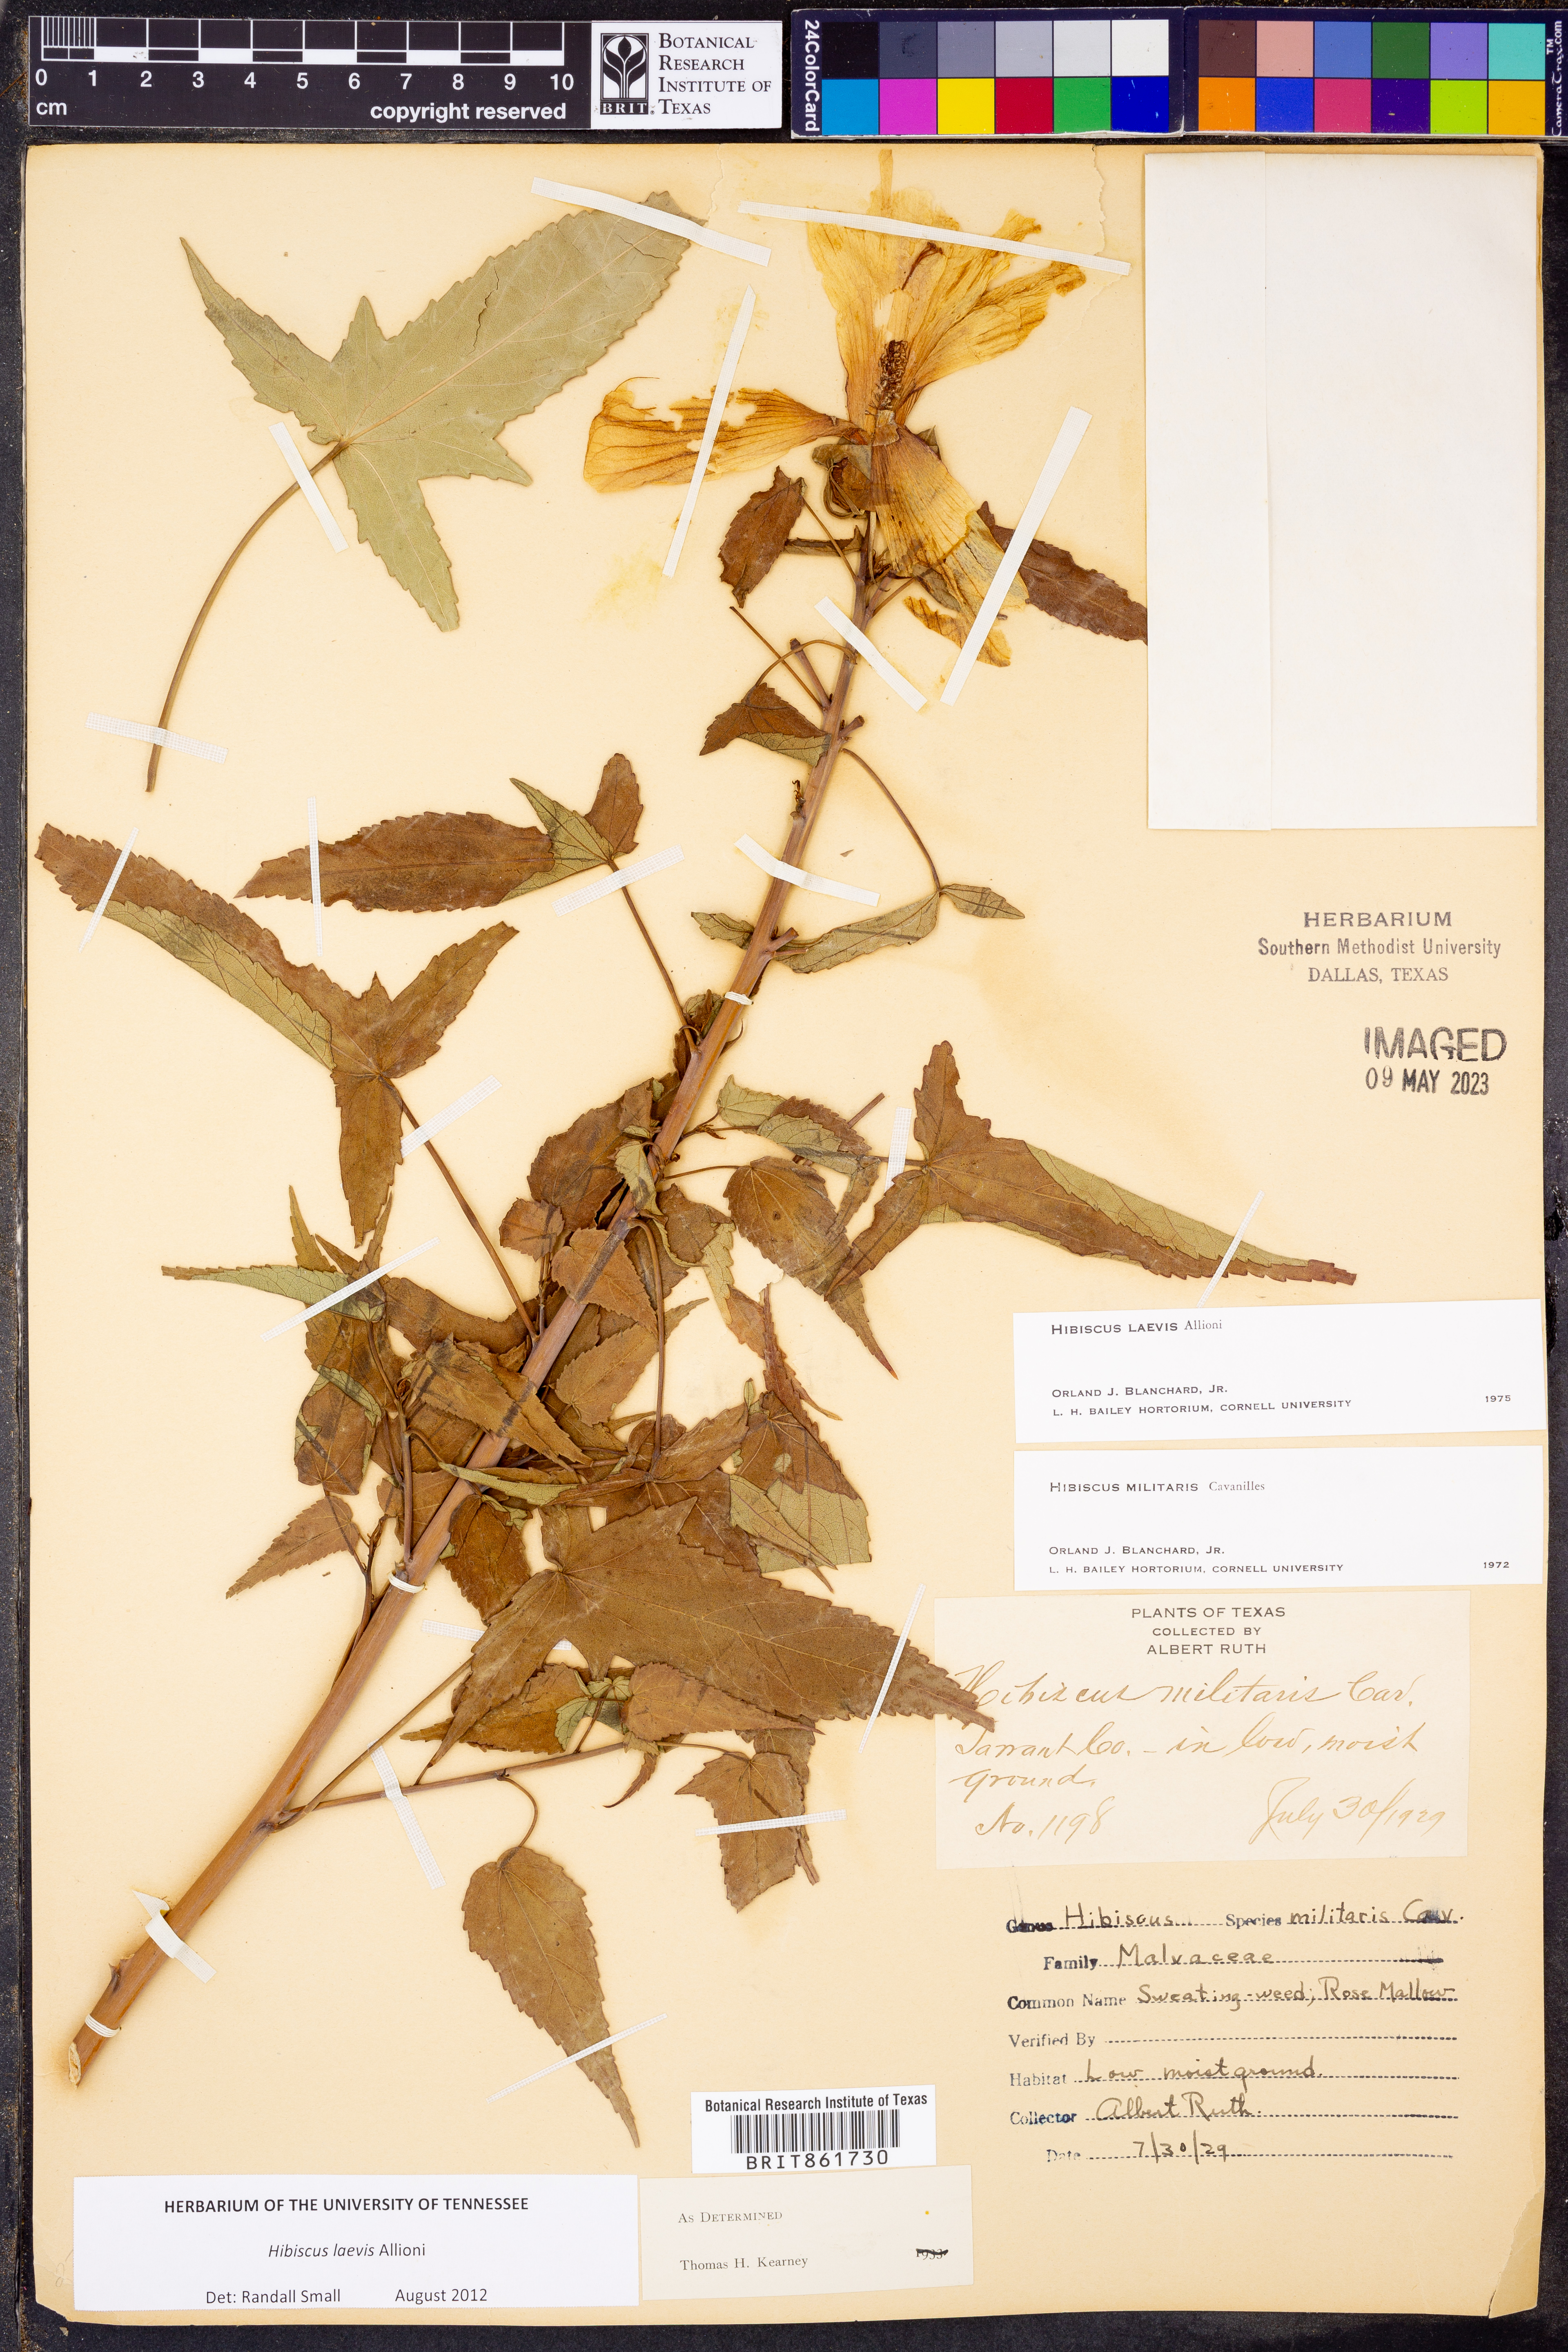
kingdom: Plantae
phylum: Tracheophyta
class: Magnoliopsida
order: Malvales
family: Malvaceae
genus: Hibiscus
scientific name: Hibiscus laevis
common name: Scarlet rose-mallow
